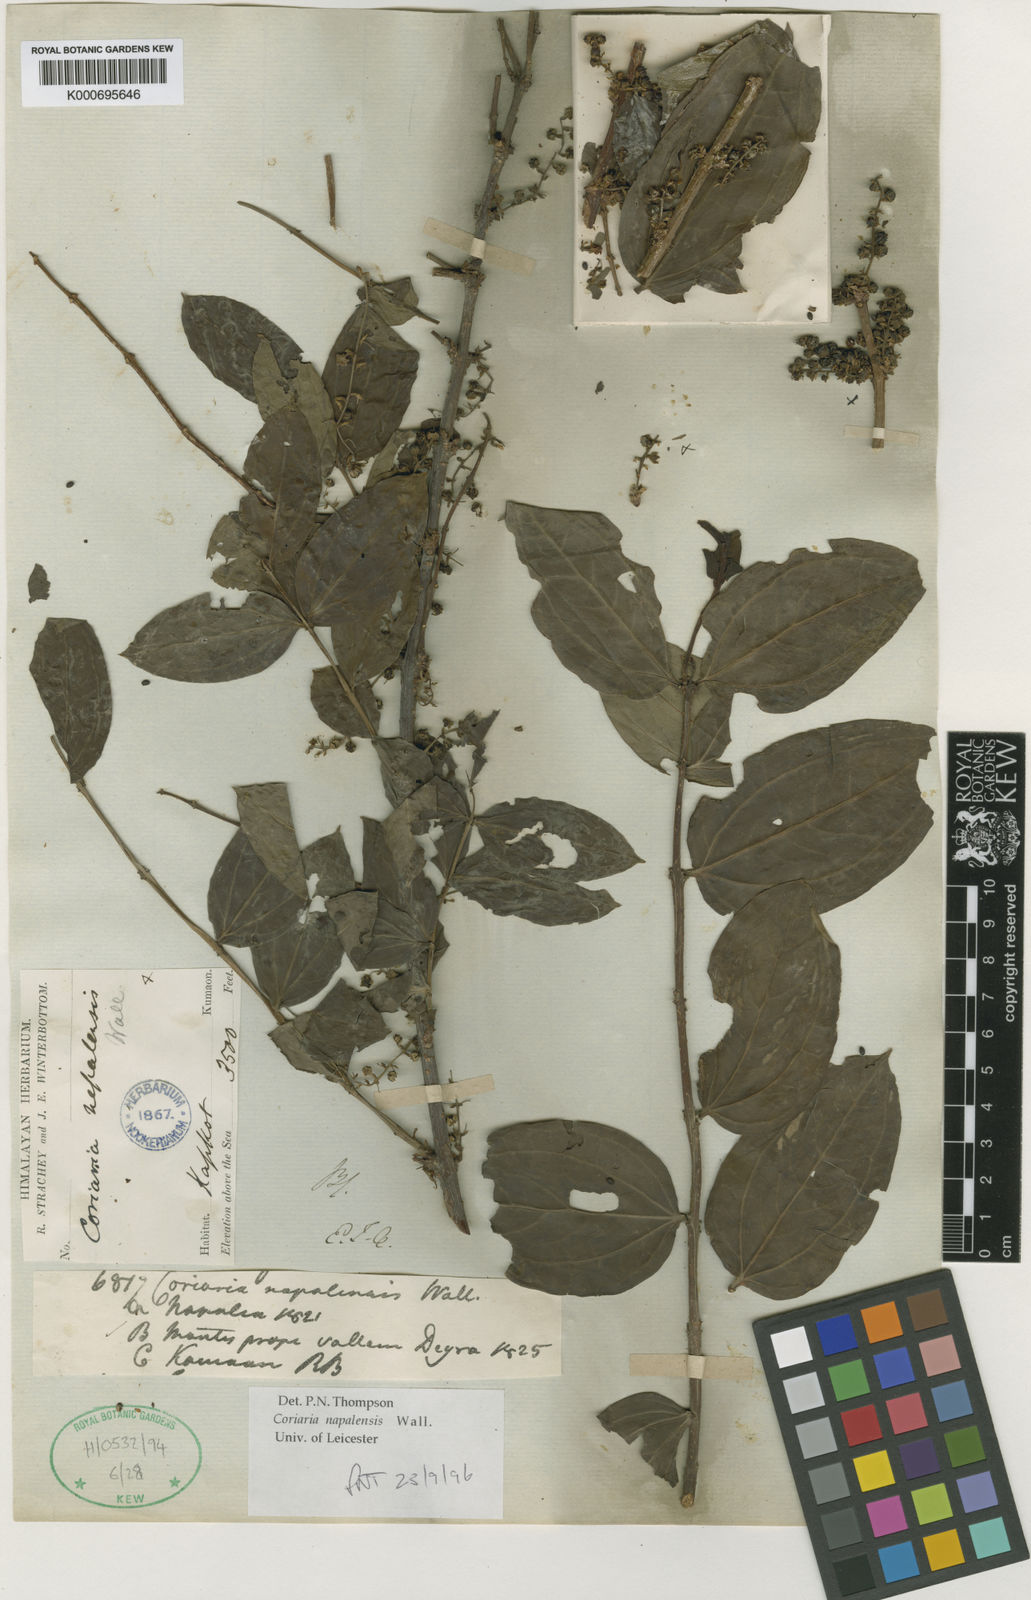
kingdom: Plantae
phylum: Tracheophyta
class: Magnoliopsida
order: Cucurbitales
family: Coriariaceae
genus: Coriaria
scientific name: Coriaria
